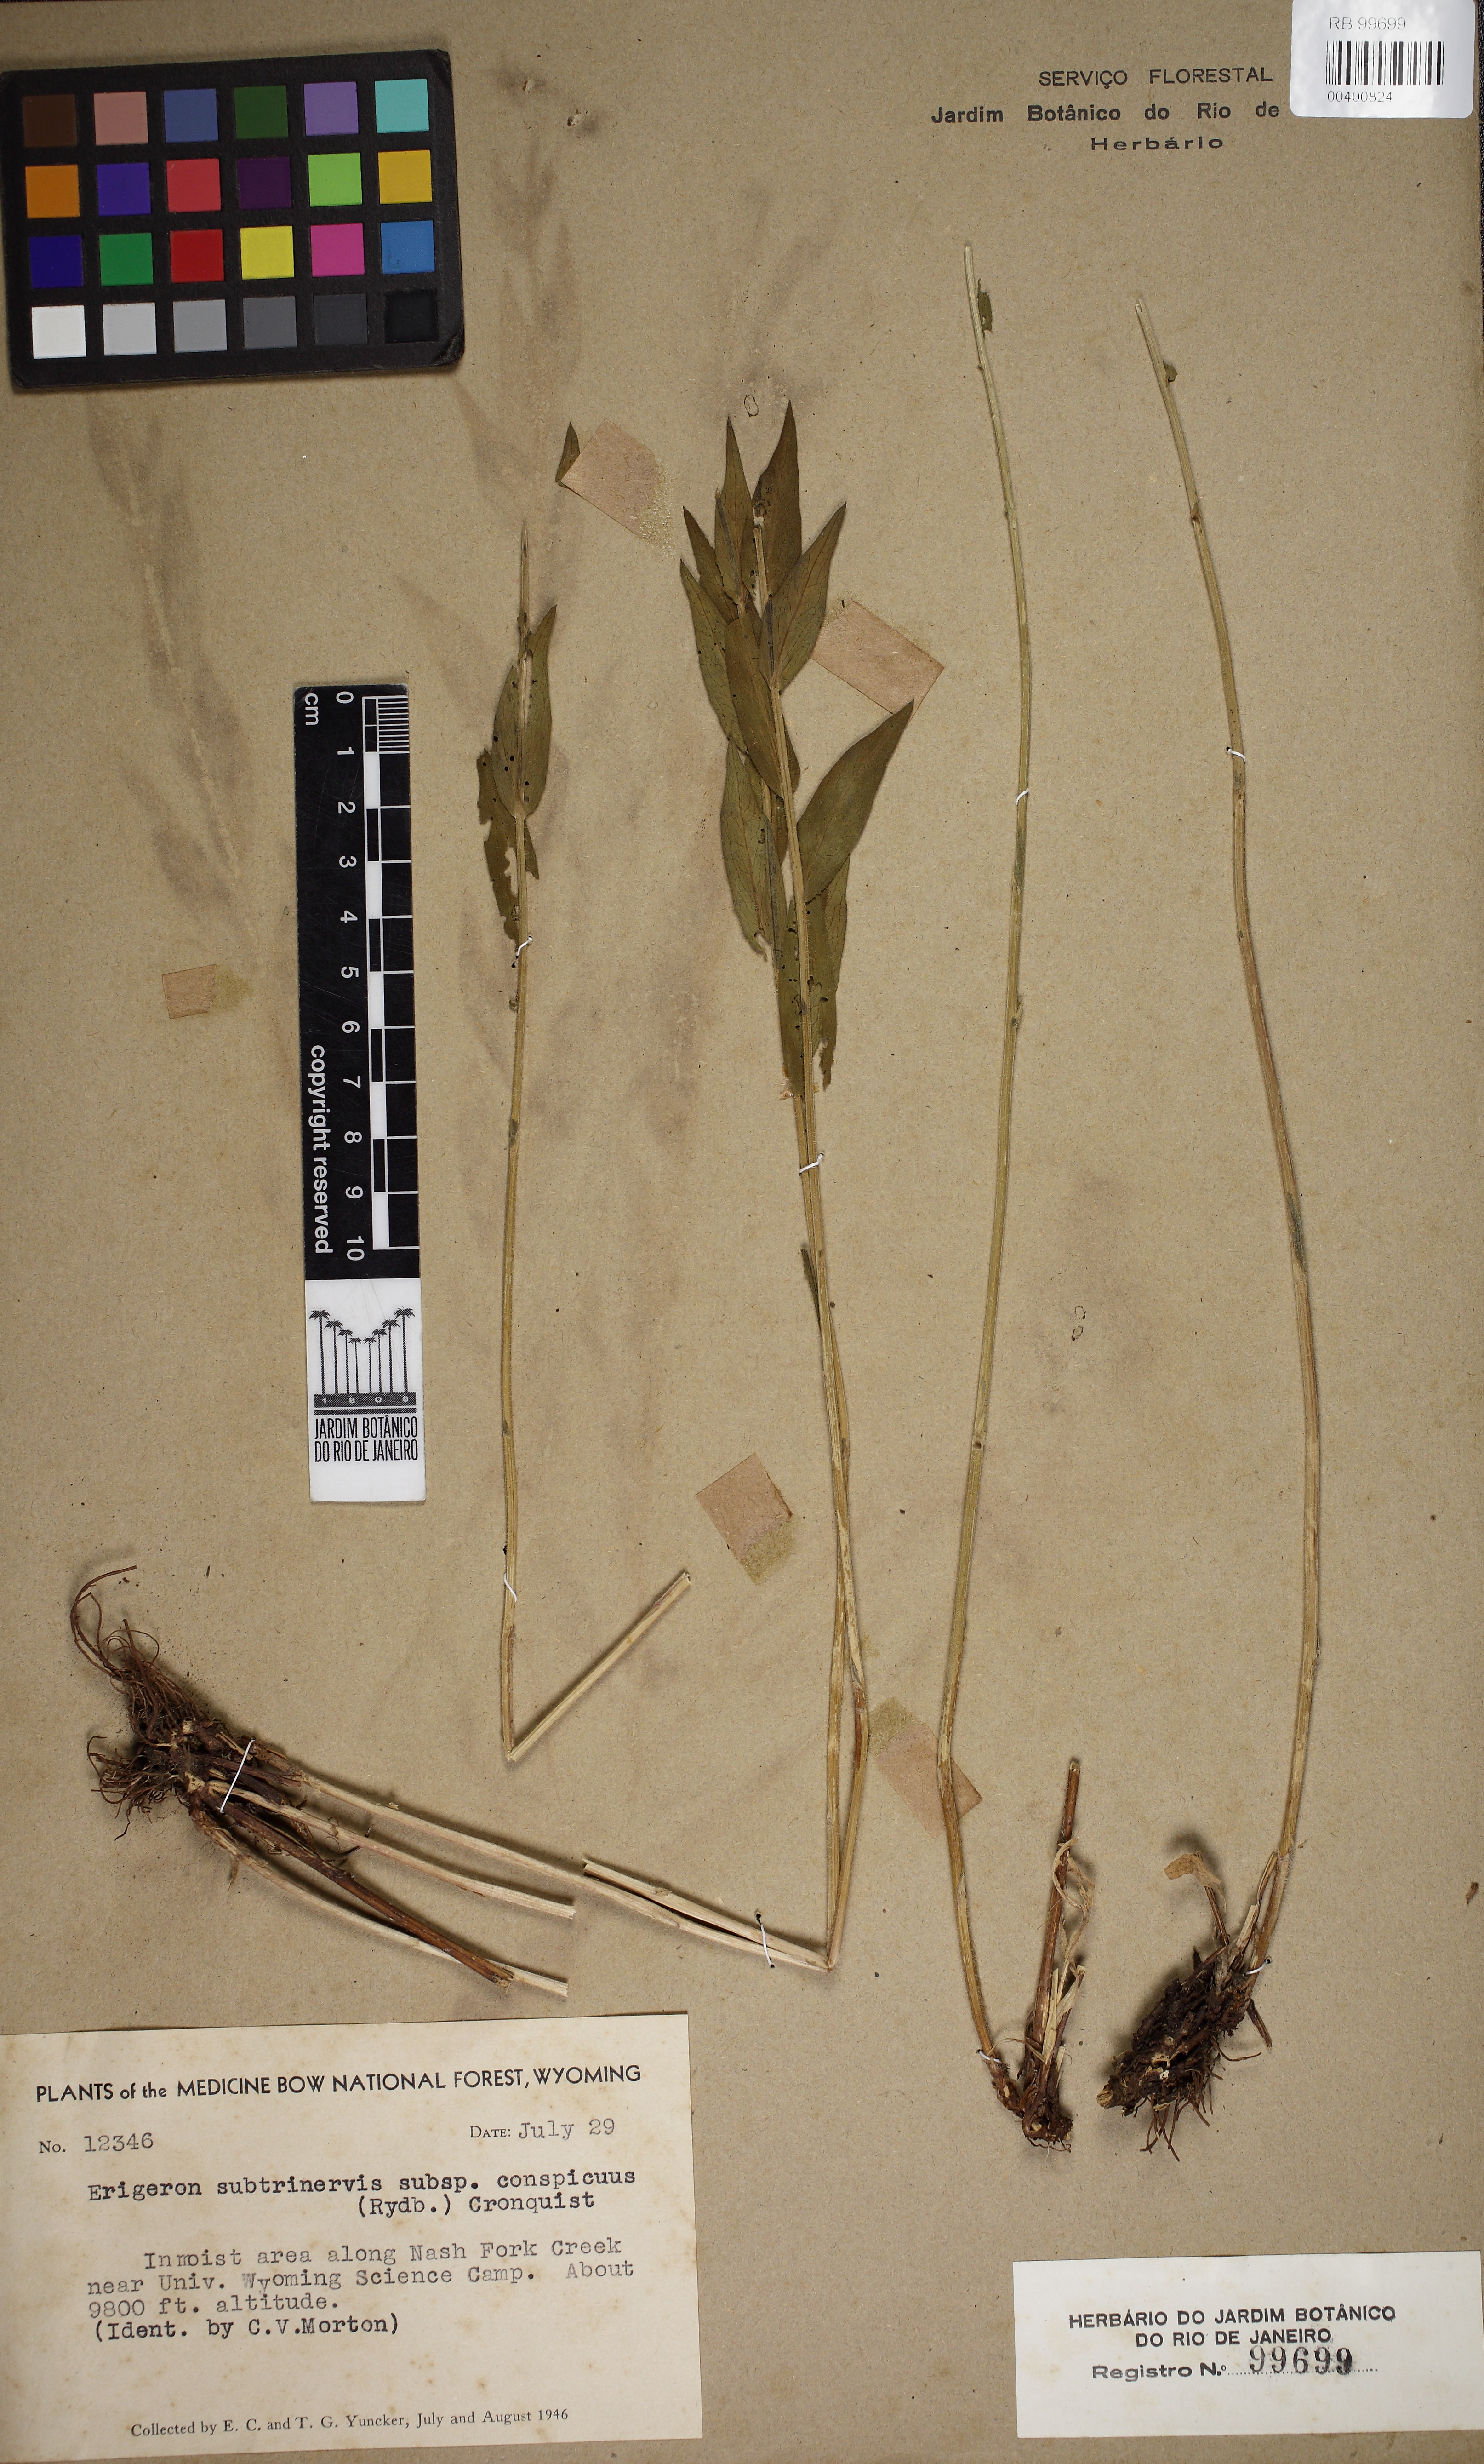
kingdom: Plantae
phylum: Tracheophyta
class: Magnoliopsida
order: Asterales
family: Asteraceae
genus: Erigeron
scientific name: Erigeron speciosus
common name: Aspen fleabane
